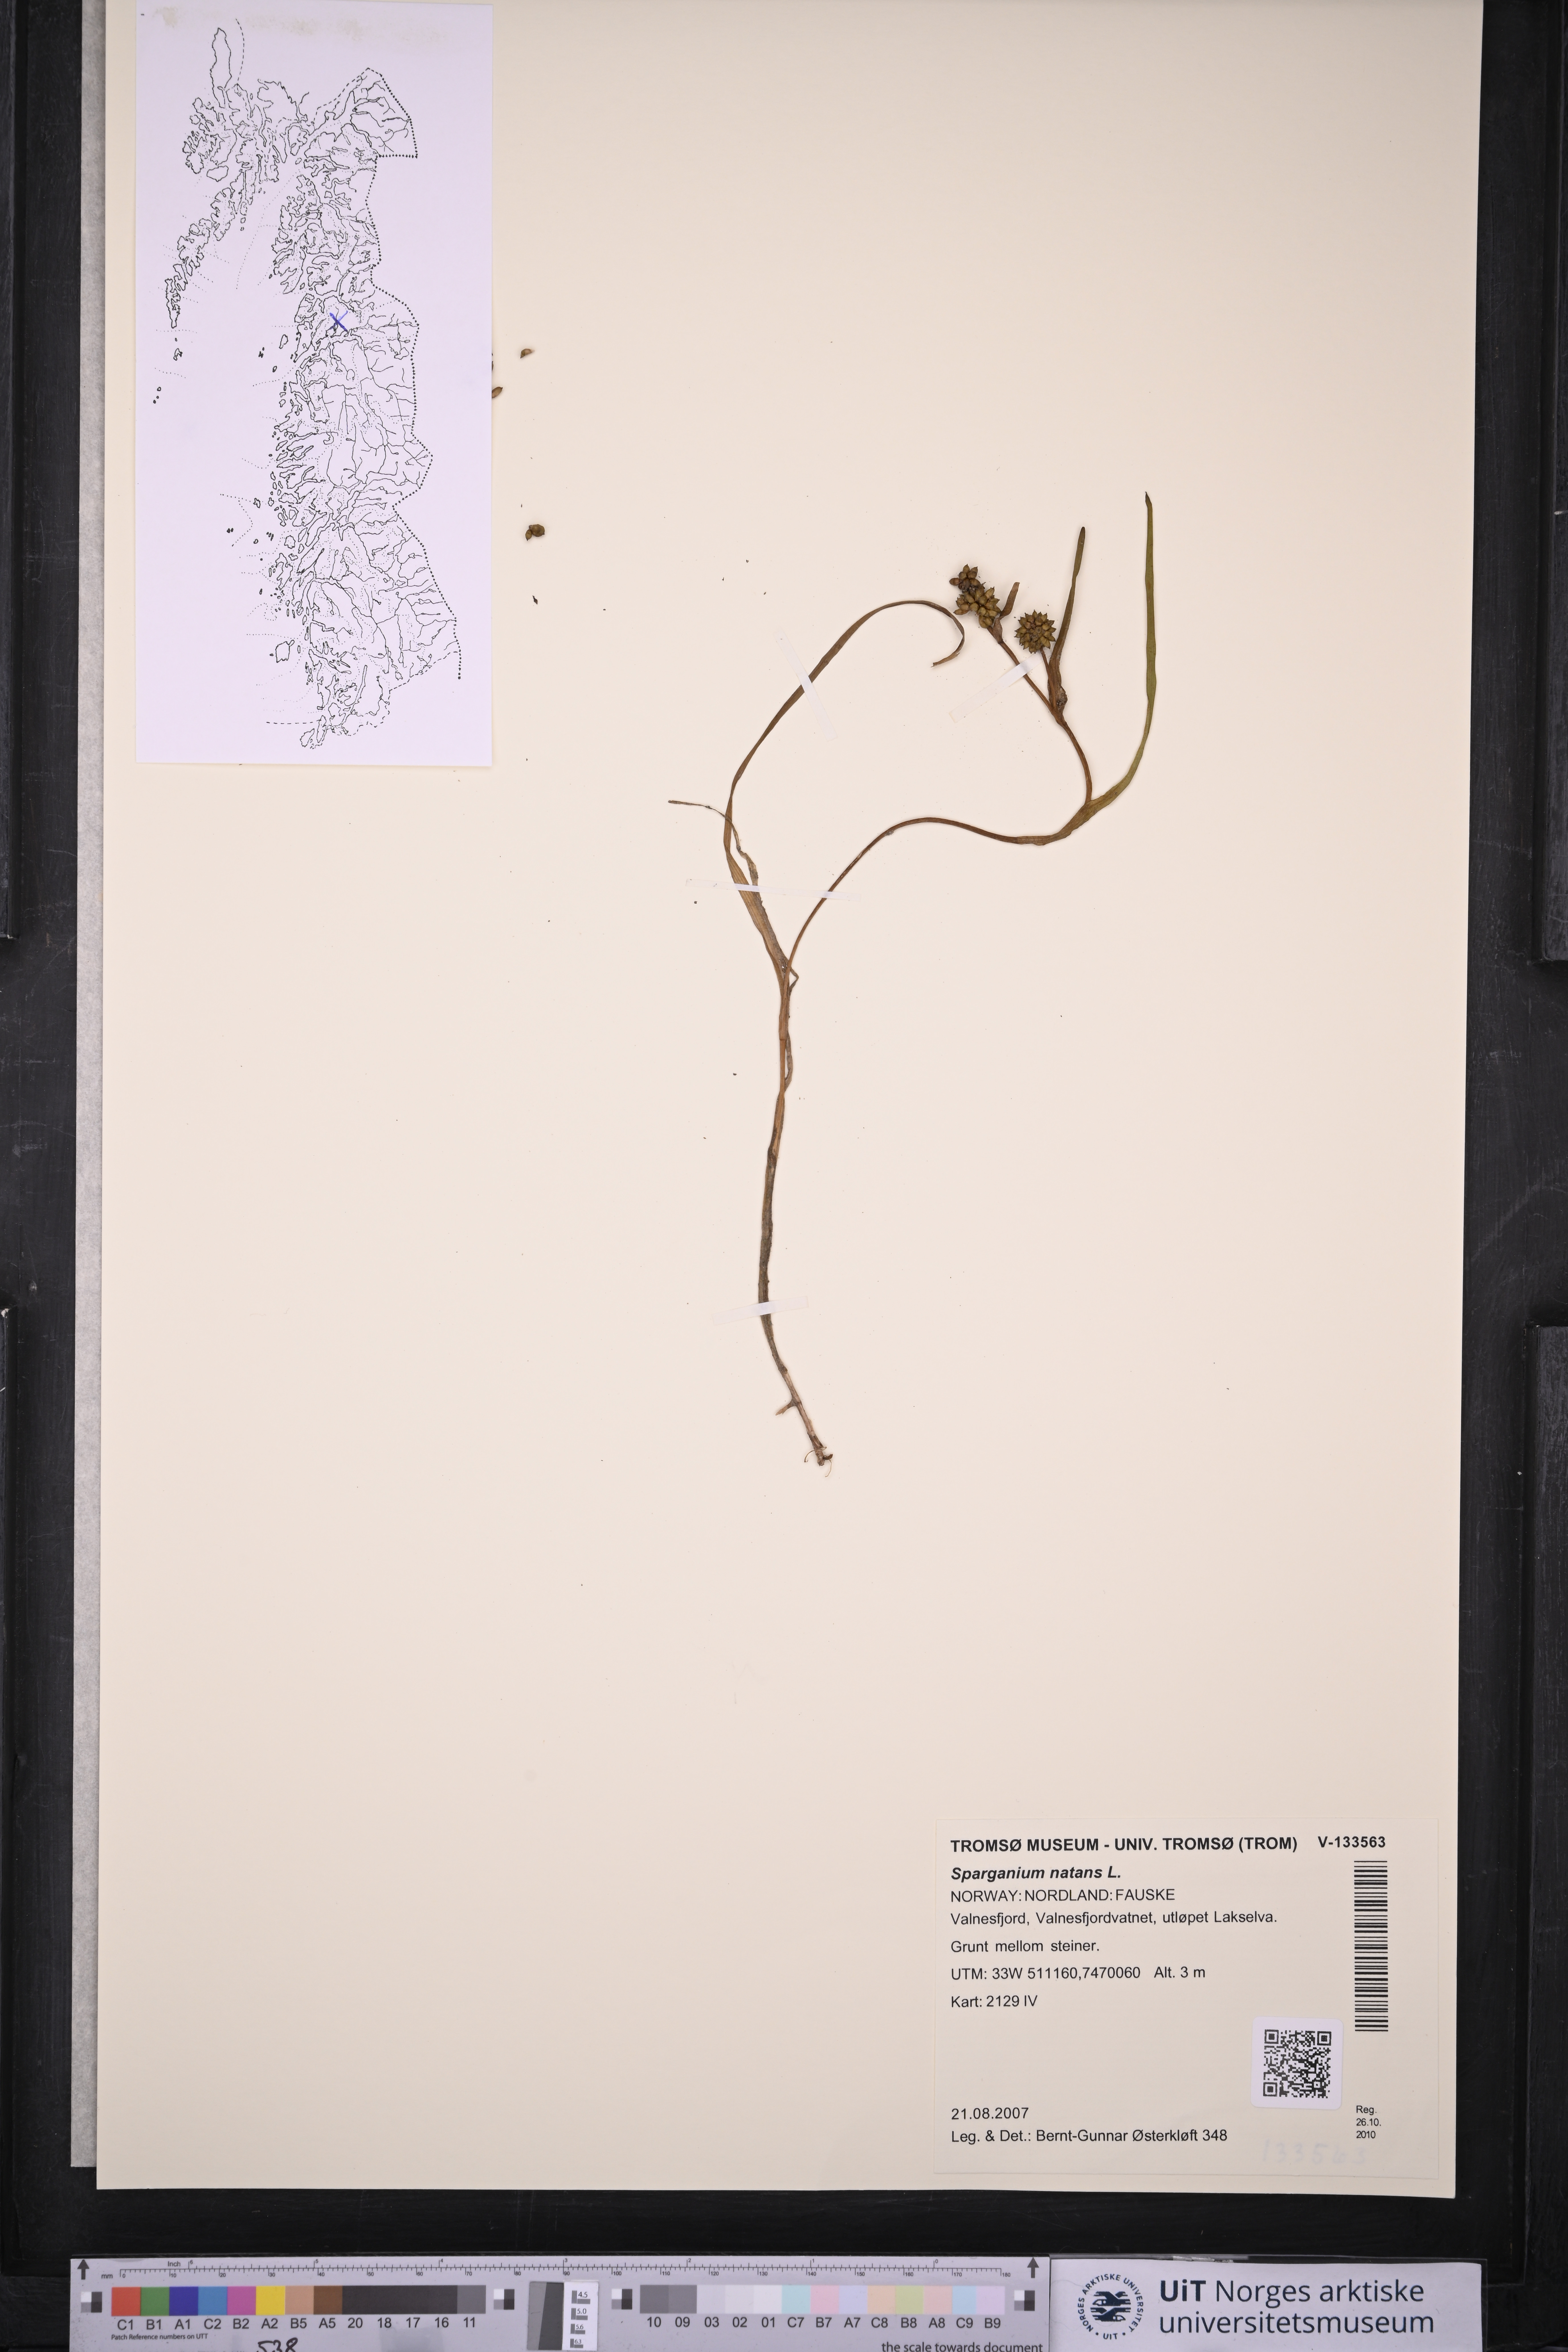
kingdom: Plantae
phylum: Tracheophyta
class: Liliopsida
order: Poales
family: Typhaceae
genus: Sparganium
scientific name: Sparganium natans
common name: Least bur-reed
